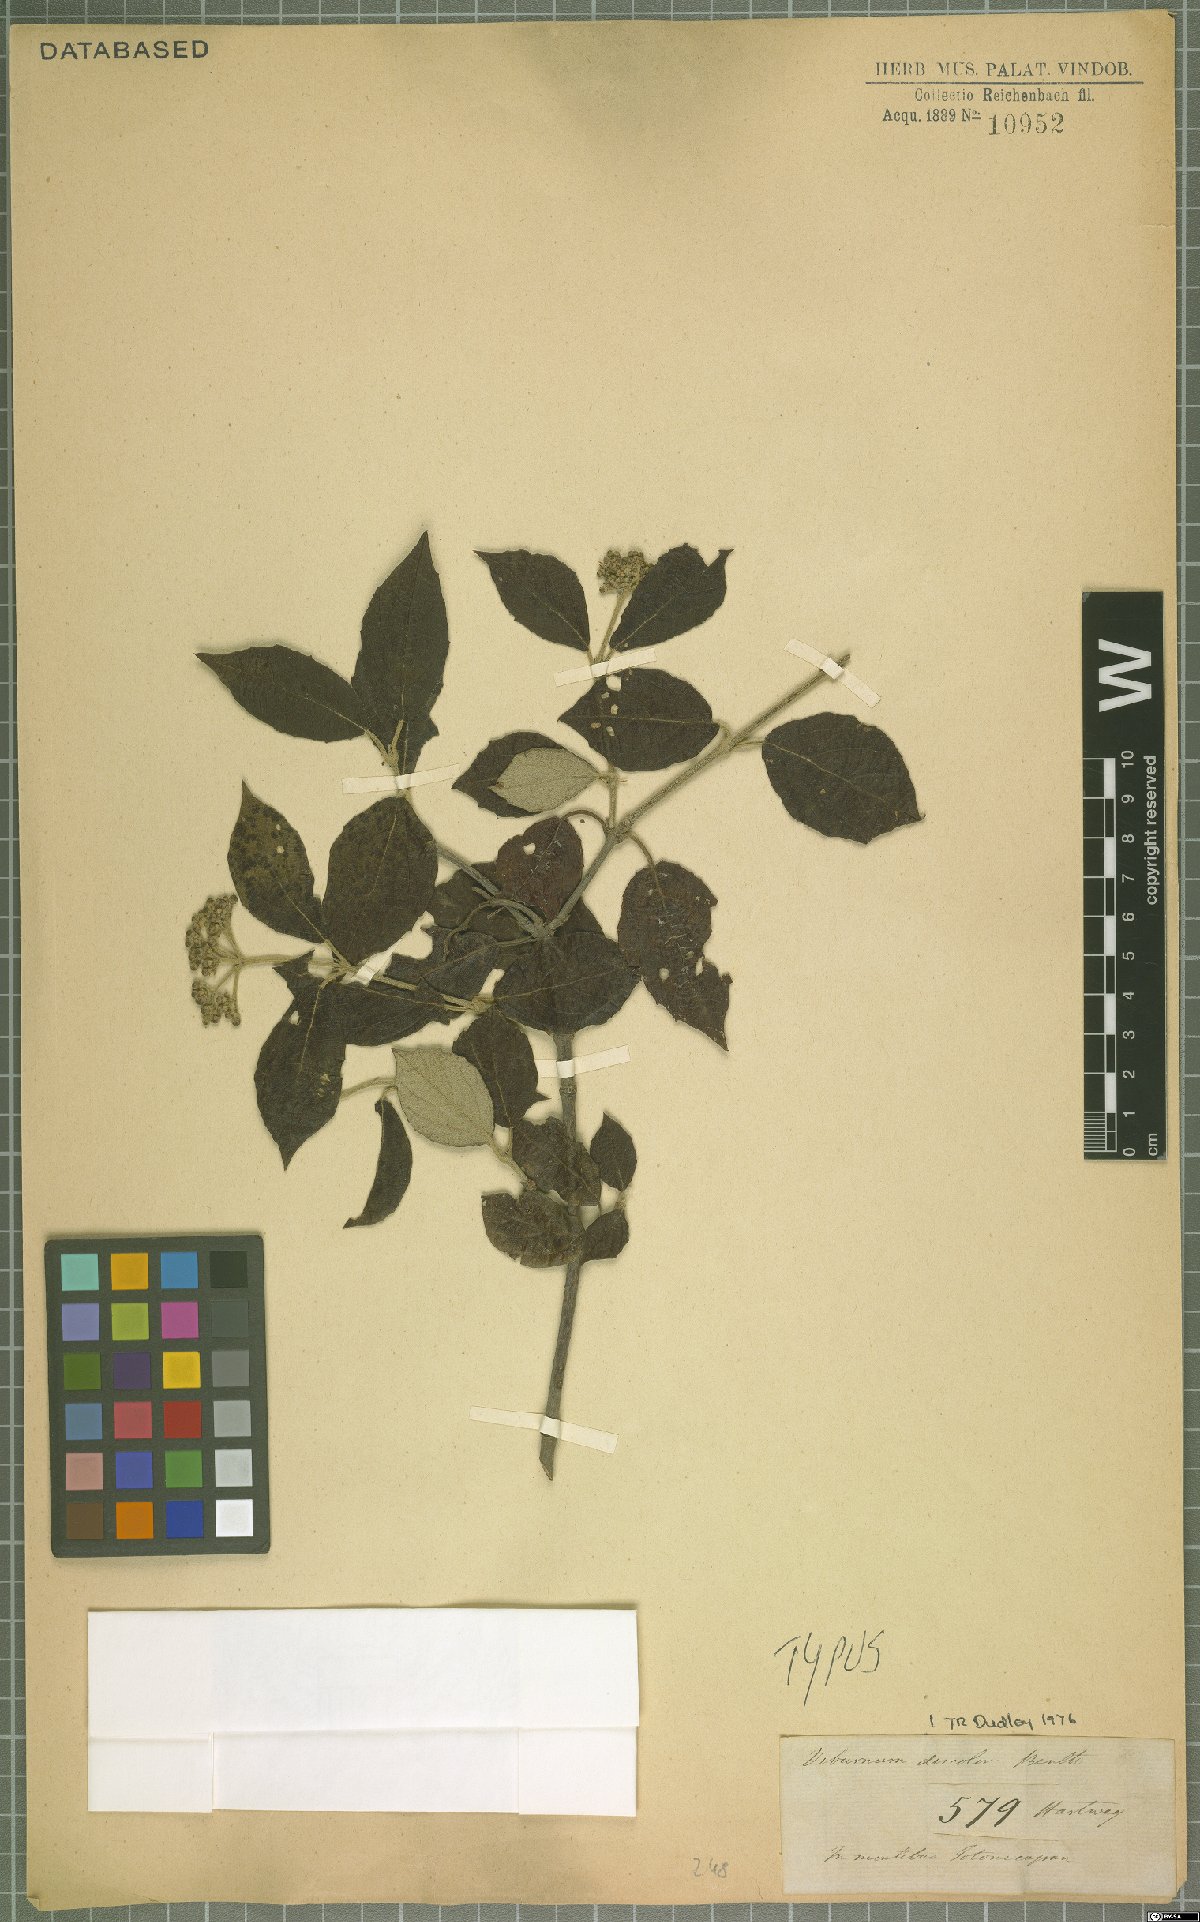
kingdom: Plantae
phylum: Tracheophyta
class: Magnoliopsida
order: Dipsacales
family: Viburnaceae
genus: Viburnum
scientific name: Viburnum discolor
